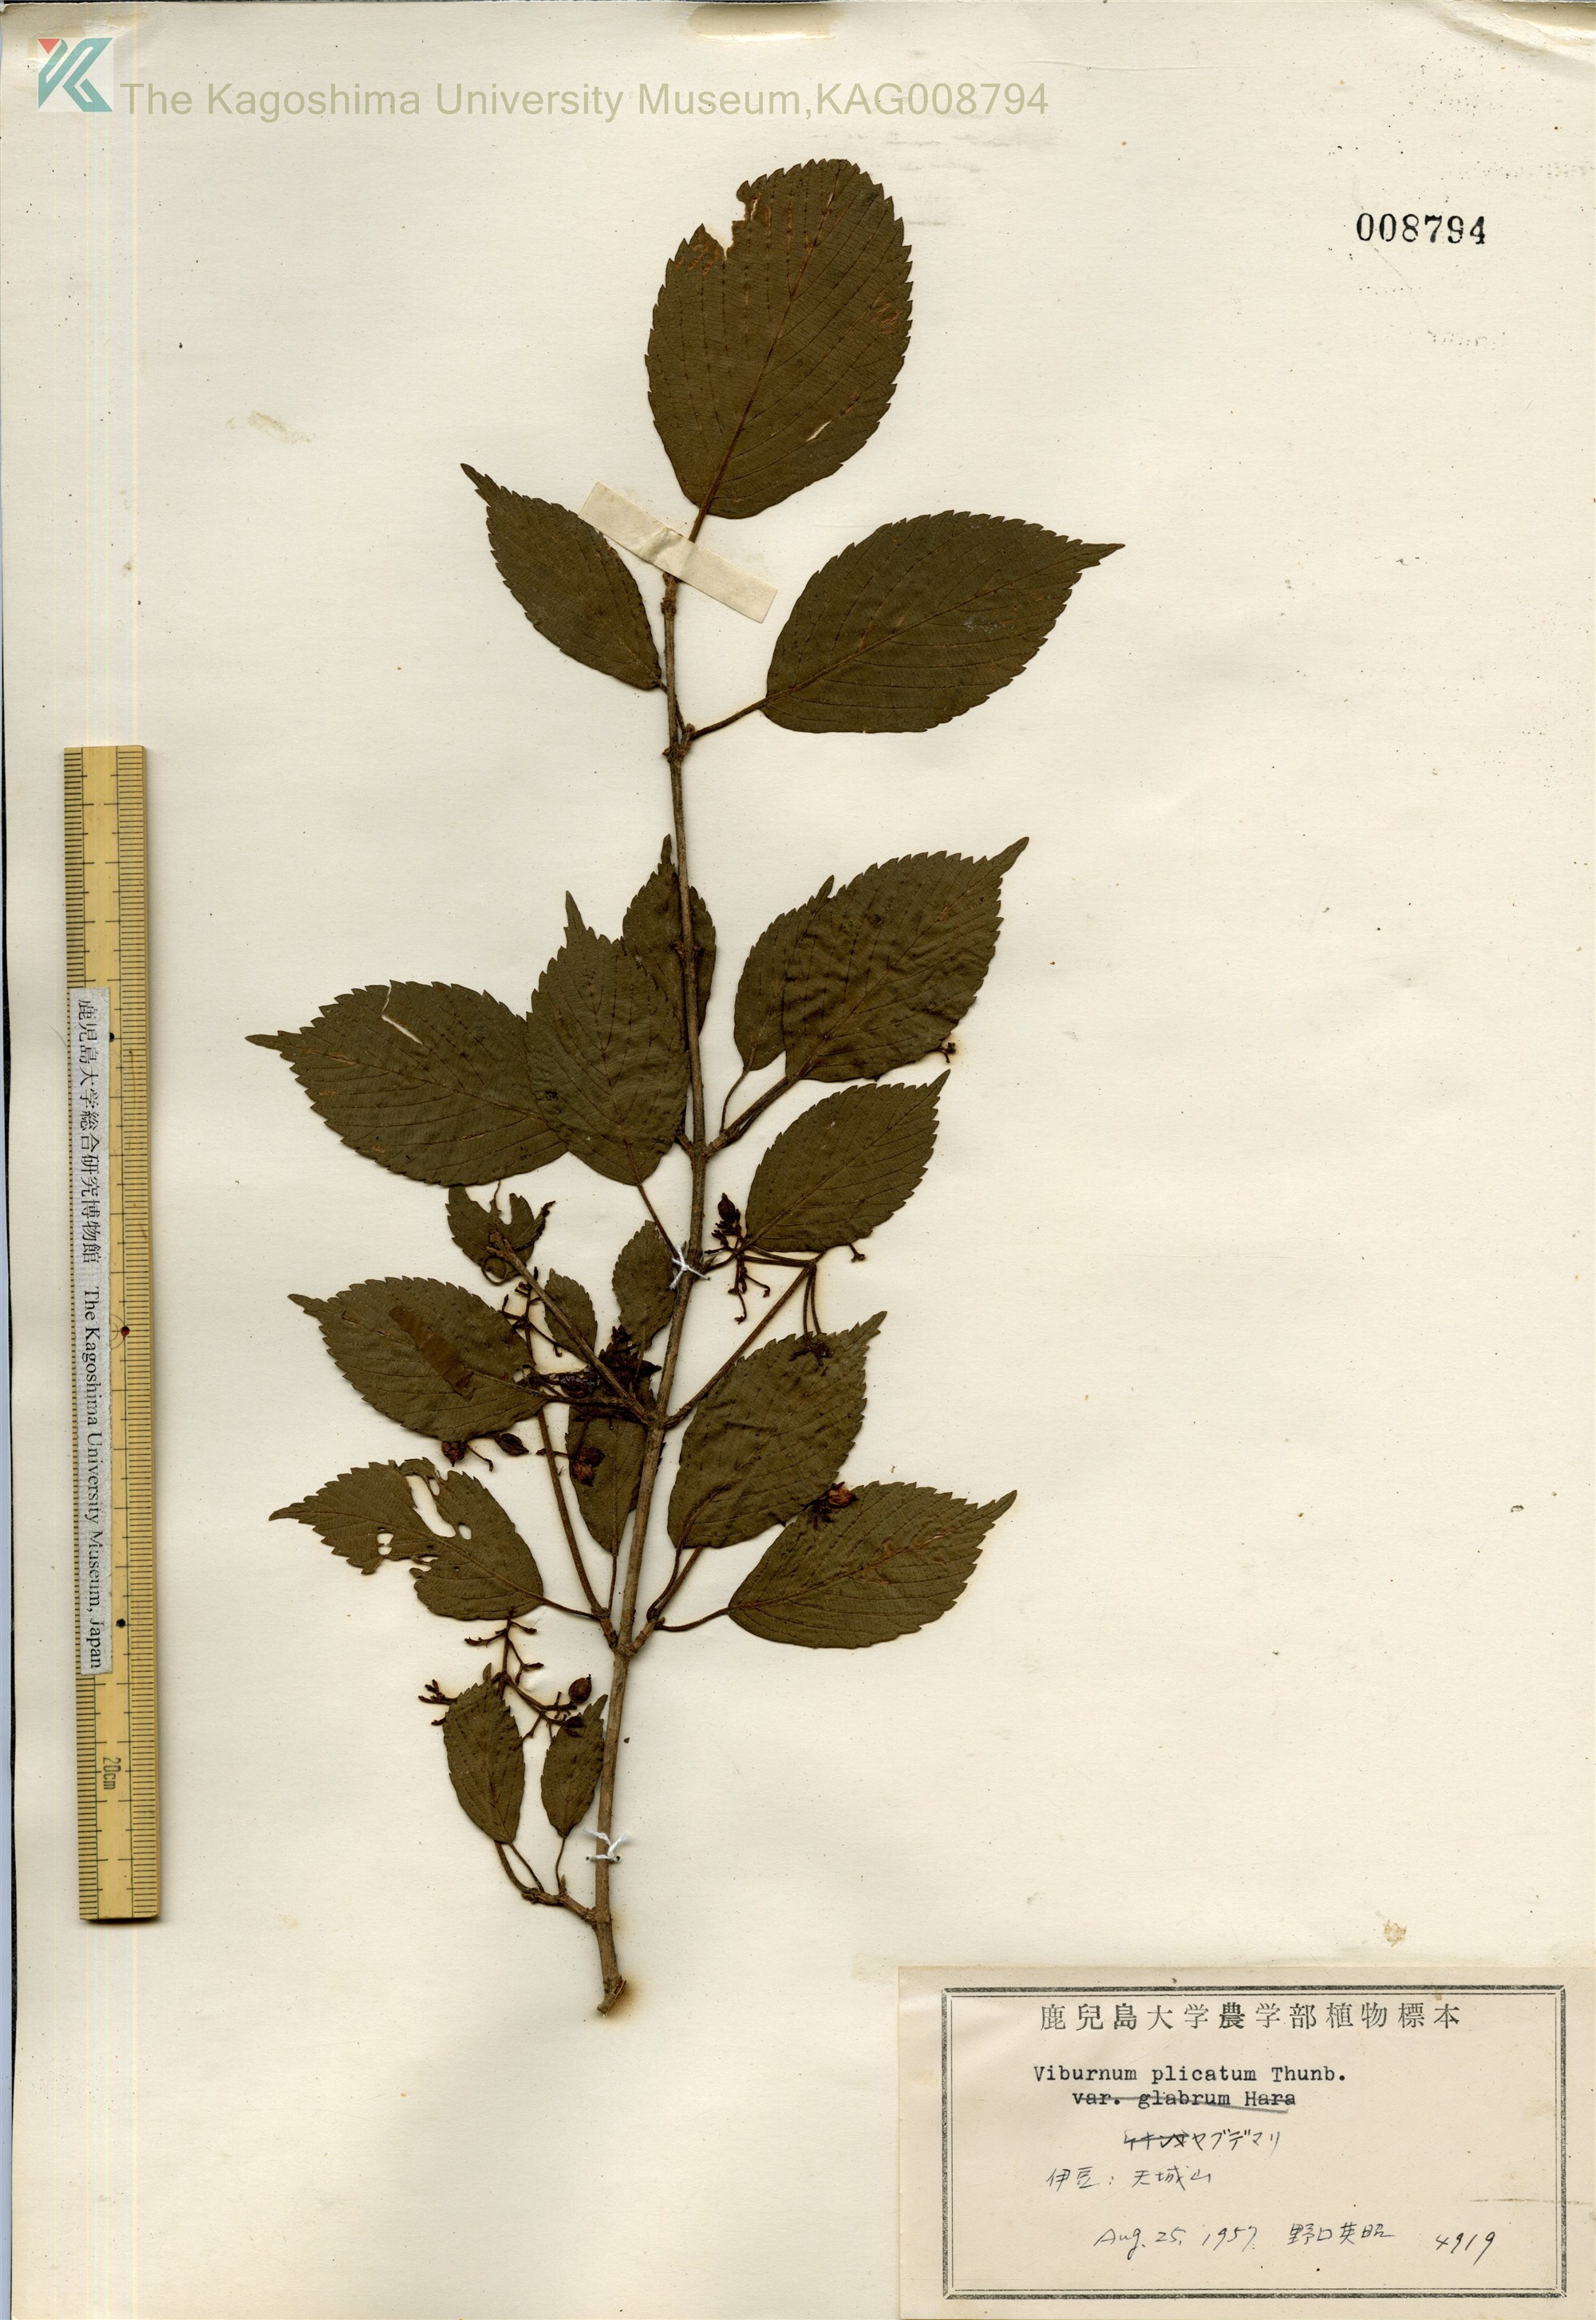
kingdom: Plantae
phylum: Tracheophyta
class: Magnoliopsida
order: Dipsacales
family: Viburnaceae
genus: Viburnum
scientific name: Viburnum plicatum
